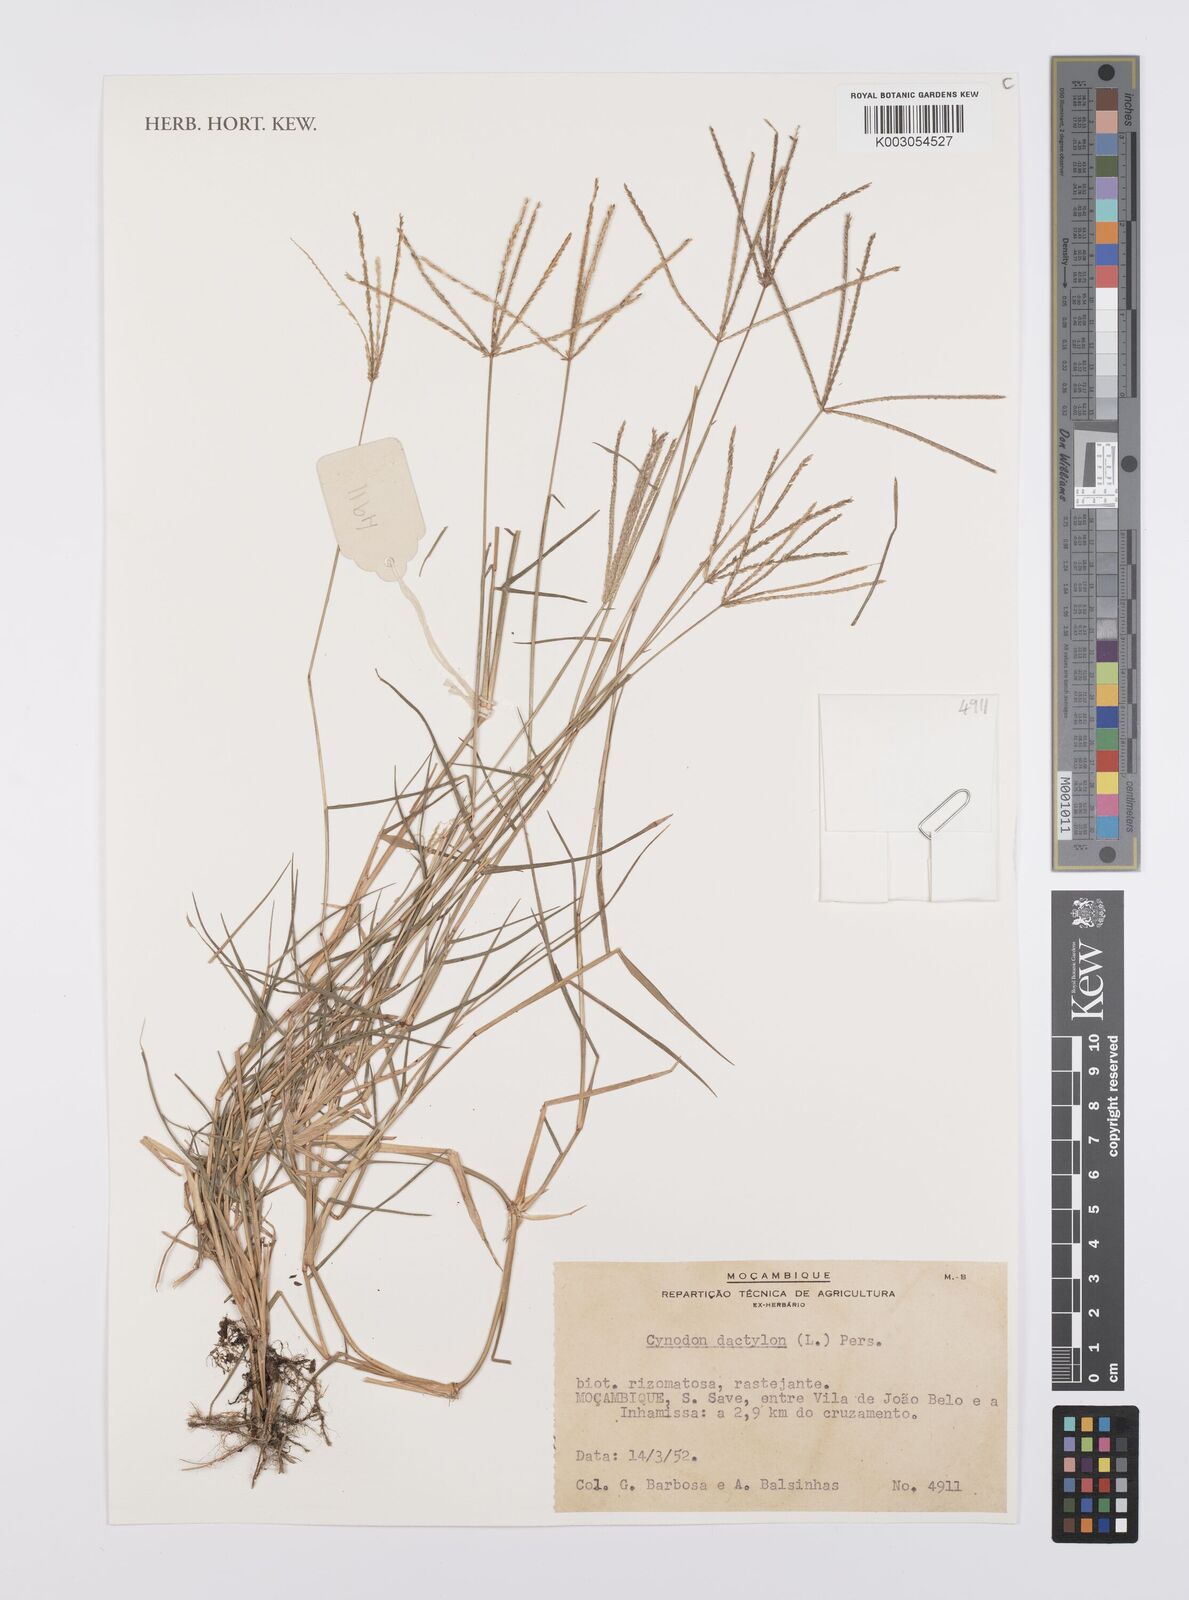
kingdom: Plantae
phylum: Tracheophyta
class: Liliopsida
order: Poales
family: Poaceae
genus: Cynodon
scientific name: Cynodon dactylon
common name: Bermuda grass
